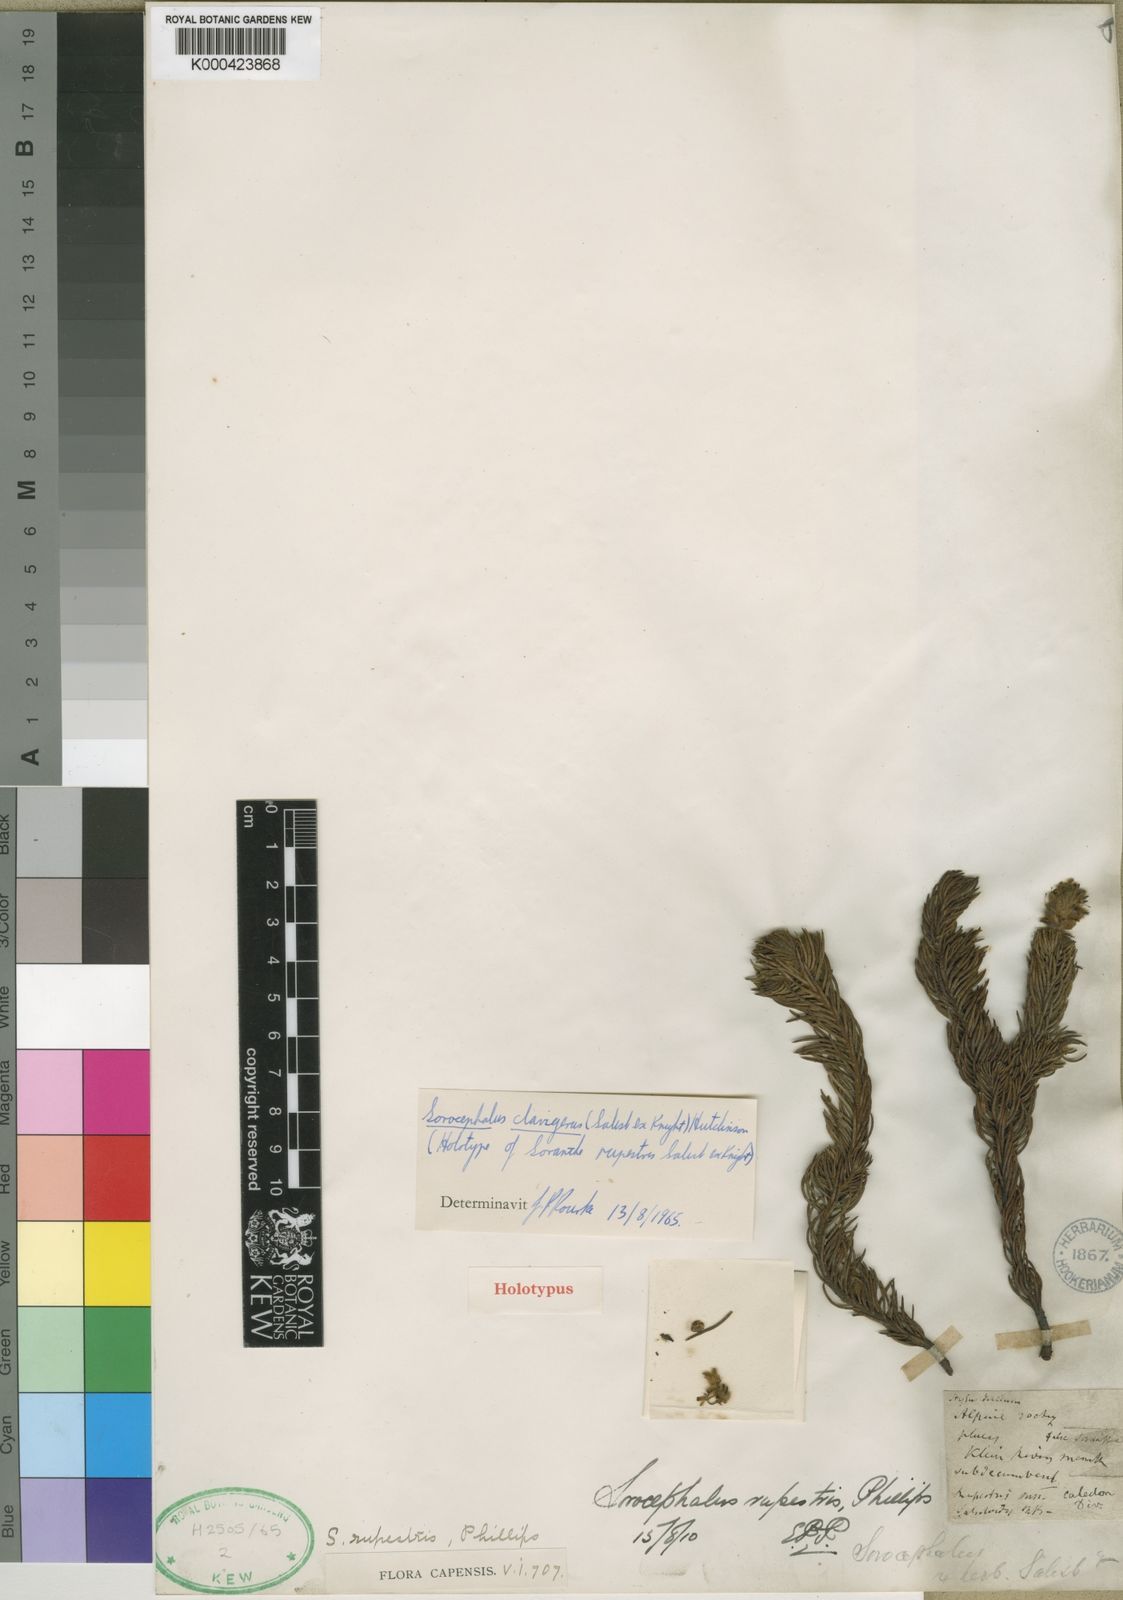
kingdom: Plantae
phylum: Tracheophyta
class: Magnoliopsida
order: Proteales
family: Proteaceae
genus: Sorocephalus
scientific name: Sorocephalus
